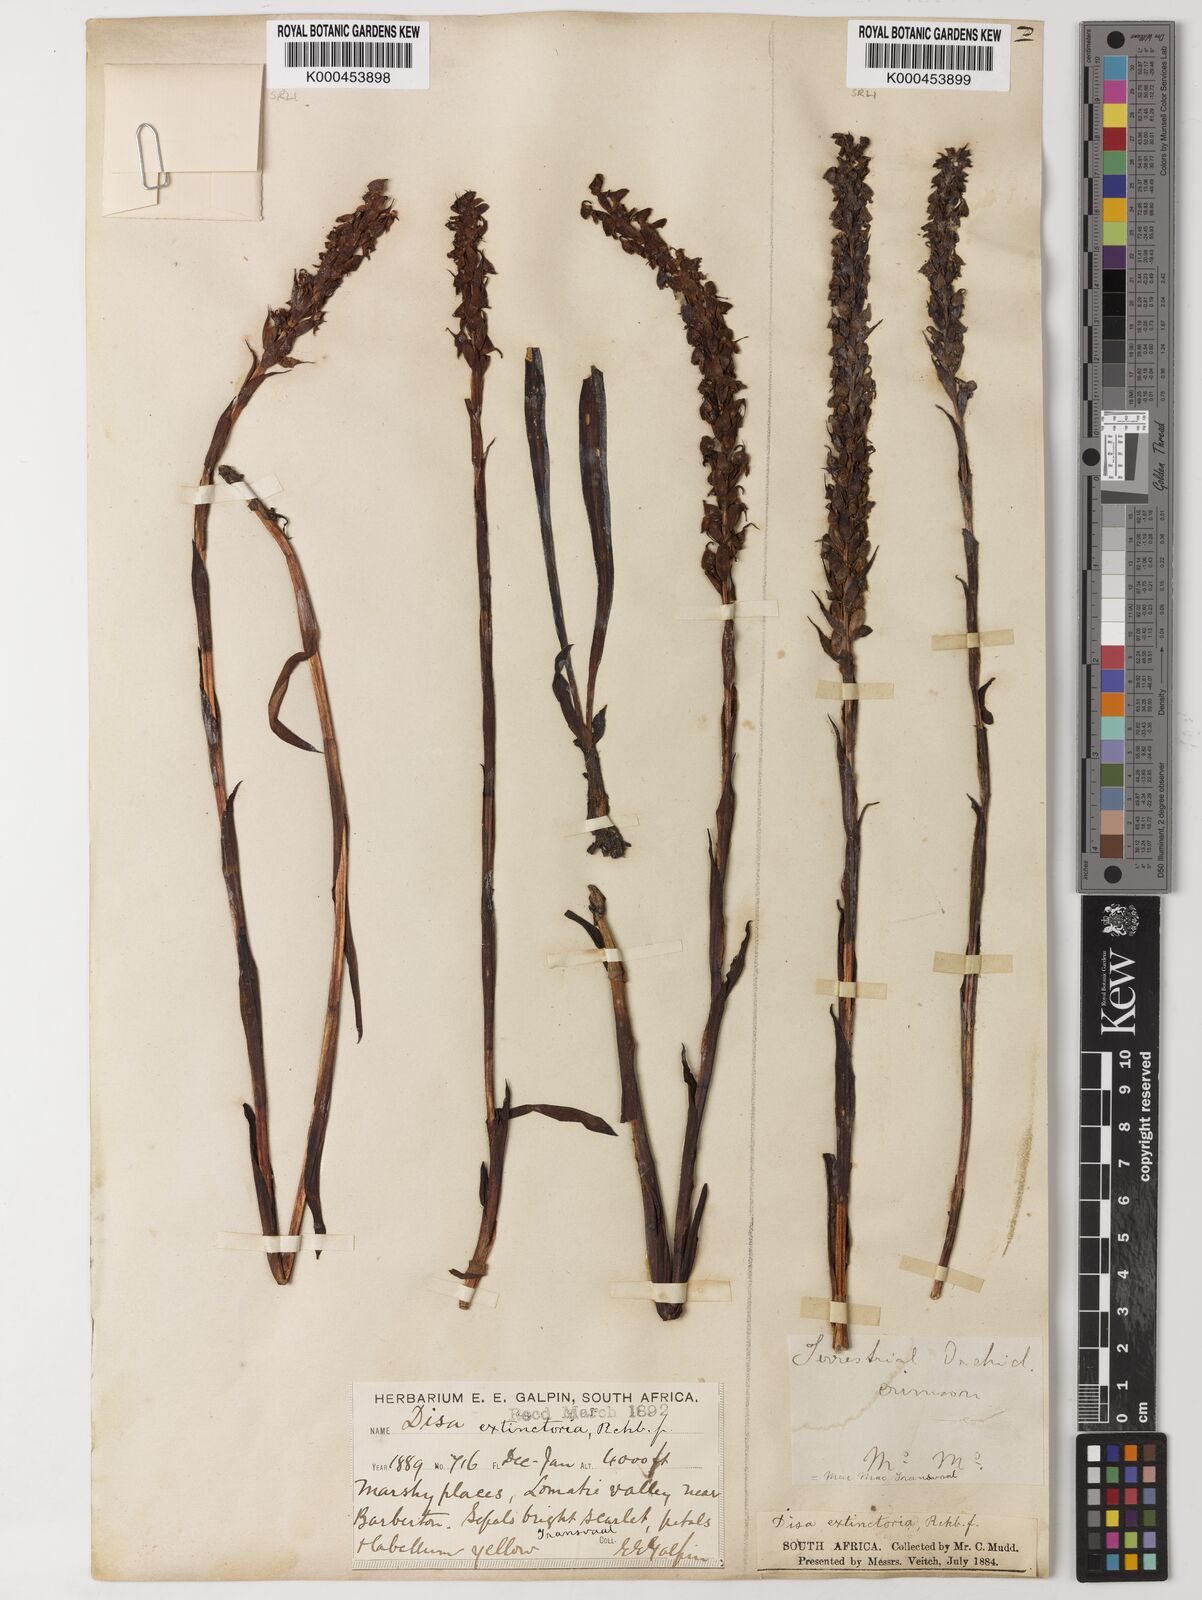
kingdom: Plantae
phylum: Tracheophyta
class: Liliopsida
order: Asparagales
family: Orchidaceae
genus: Disa
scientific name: Disa extinctoria
